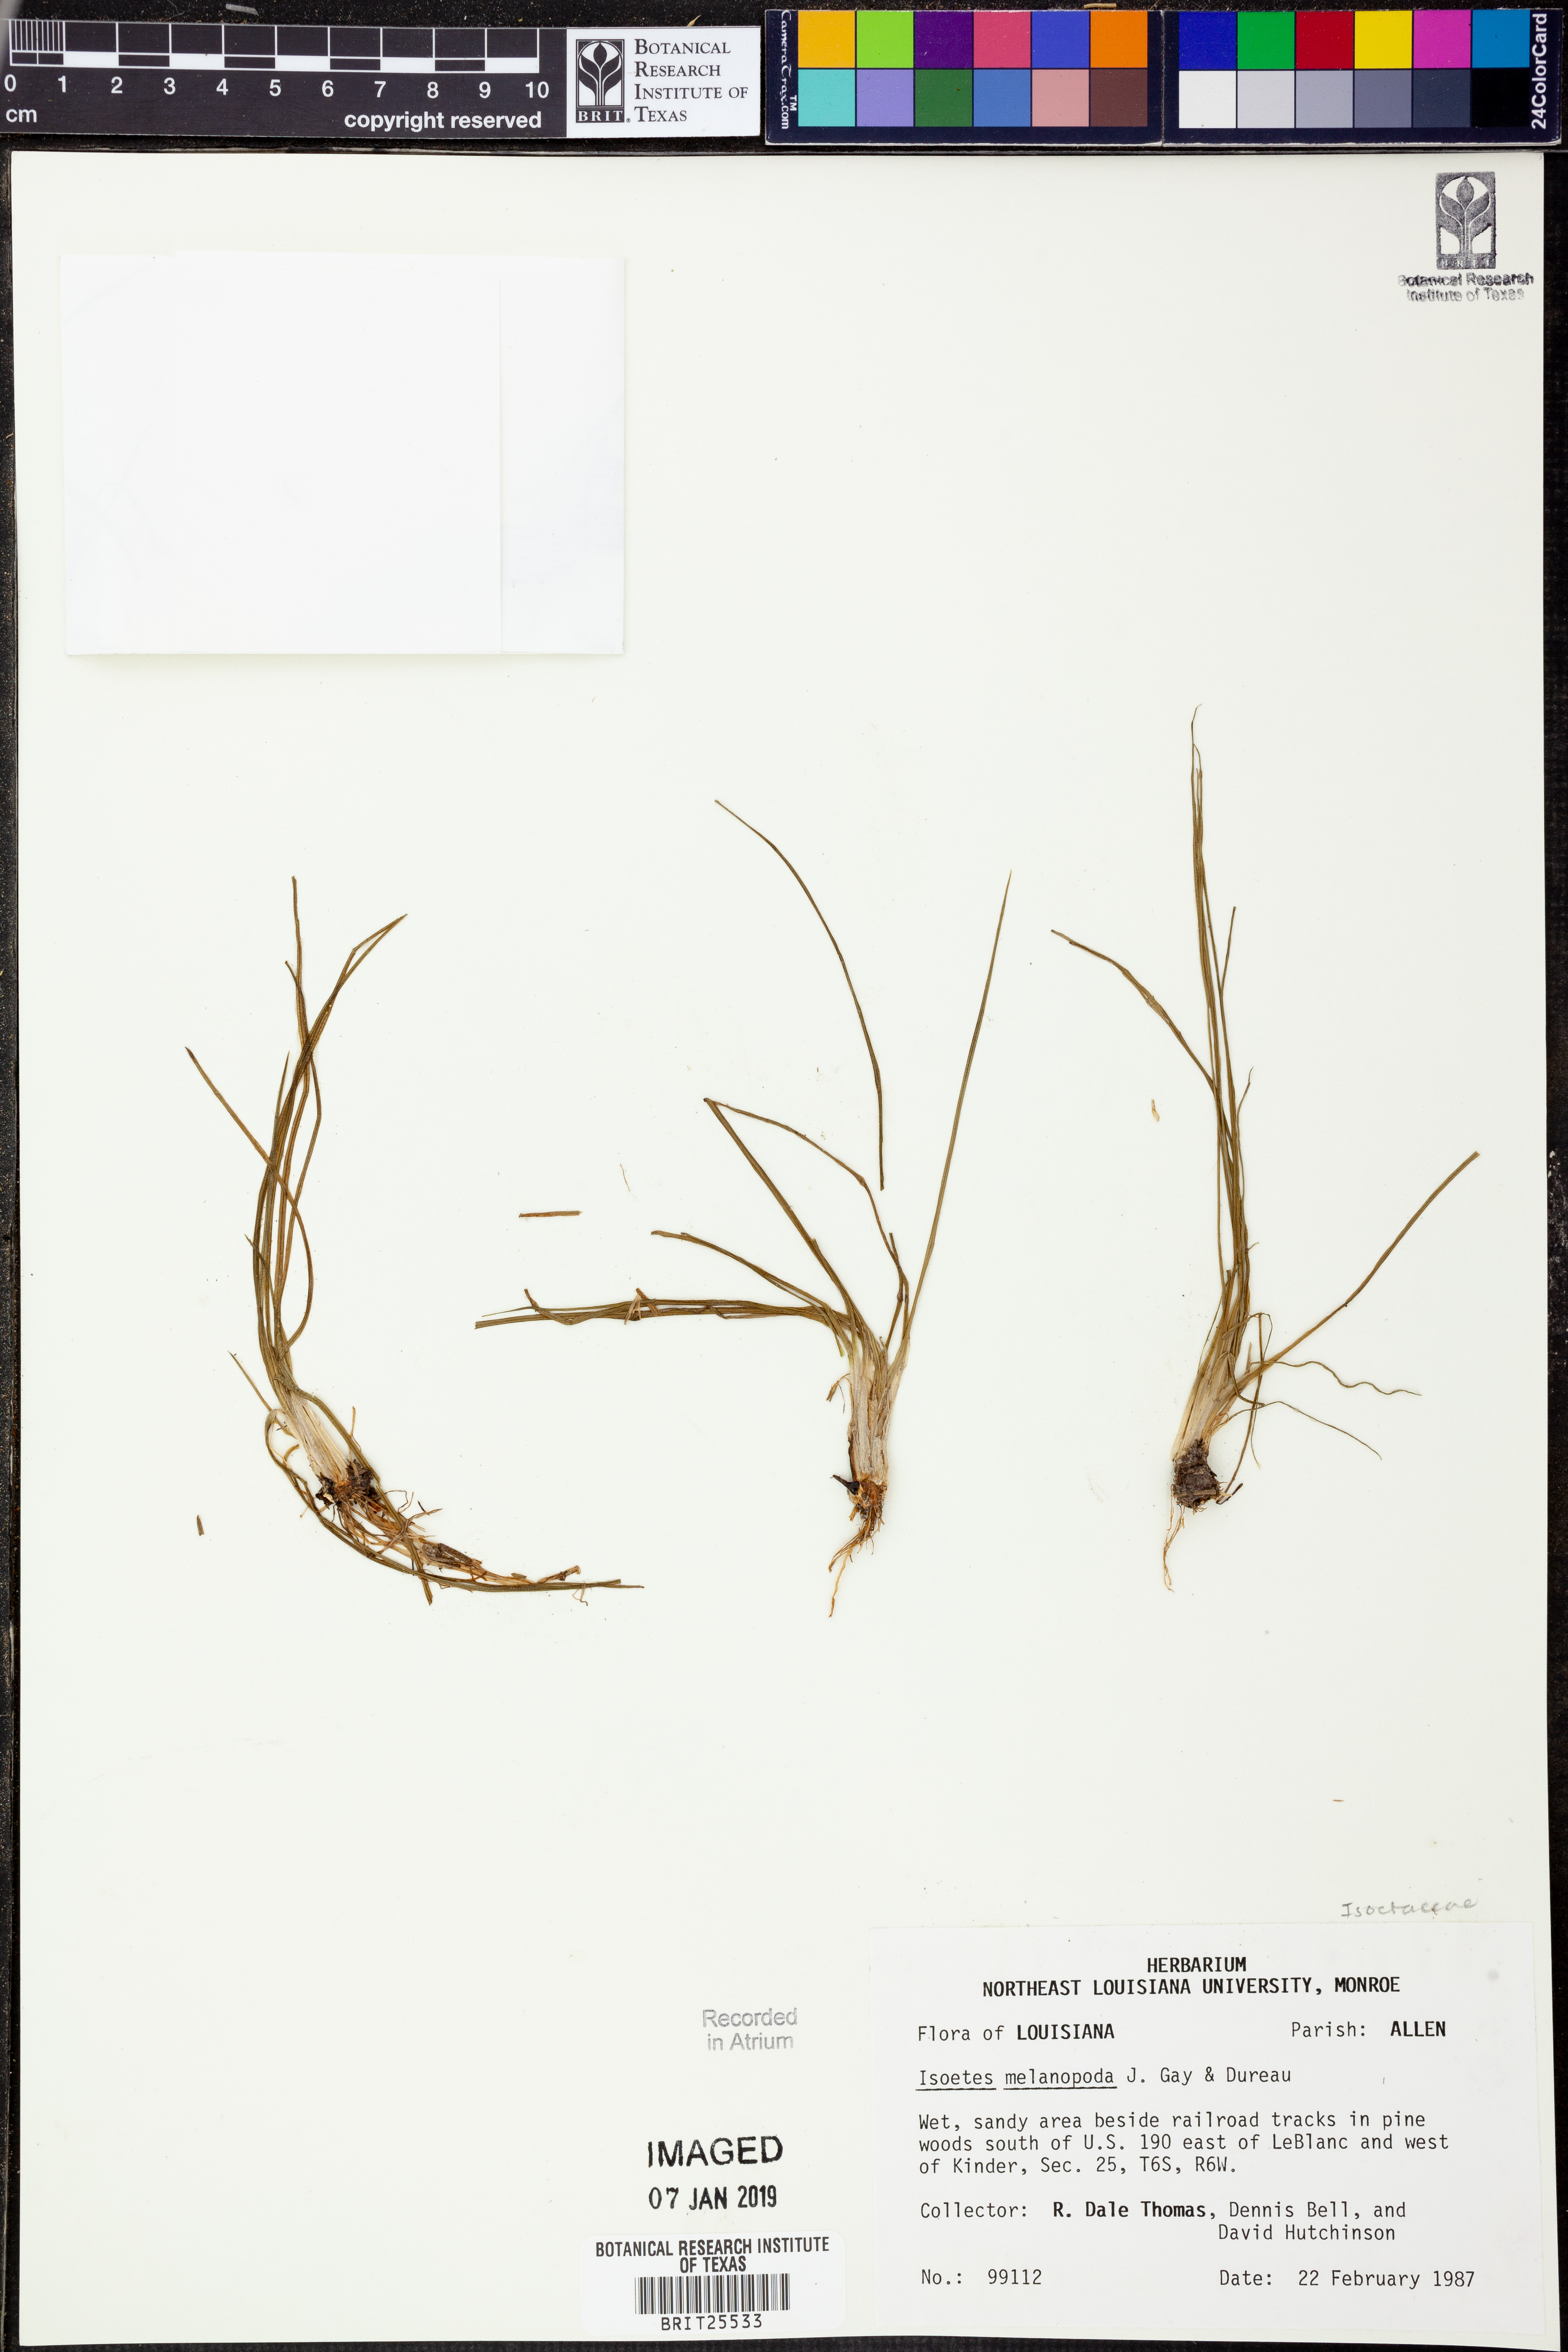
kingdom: Plantae
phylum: Tracheophyta
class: Lycopodiopsida
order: Isoetales
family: Isoetaceae
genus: Isoetes
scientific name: Isoetes melanopoda
